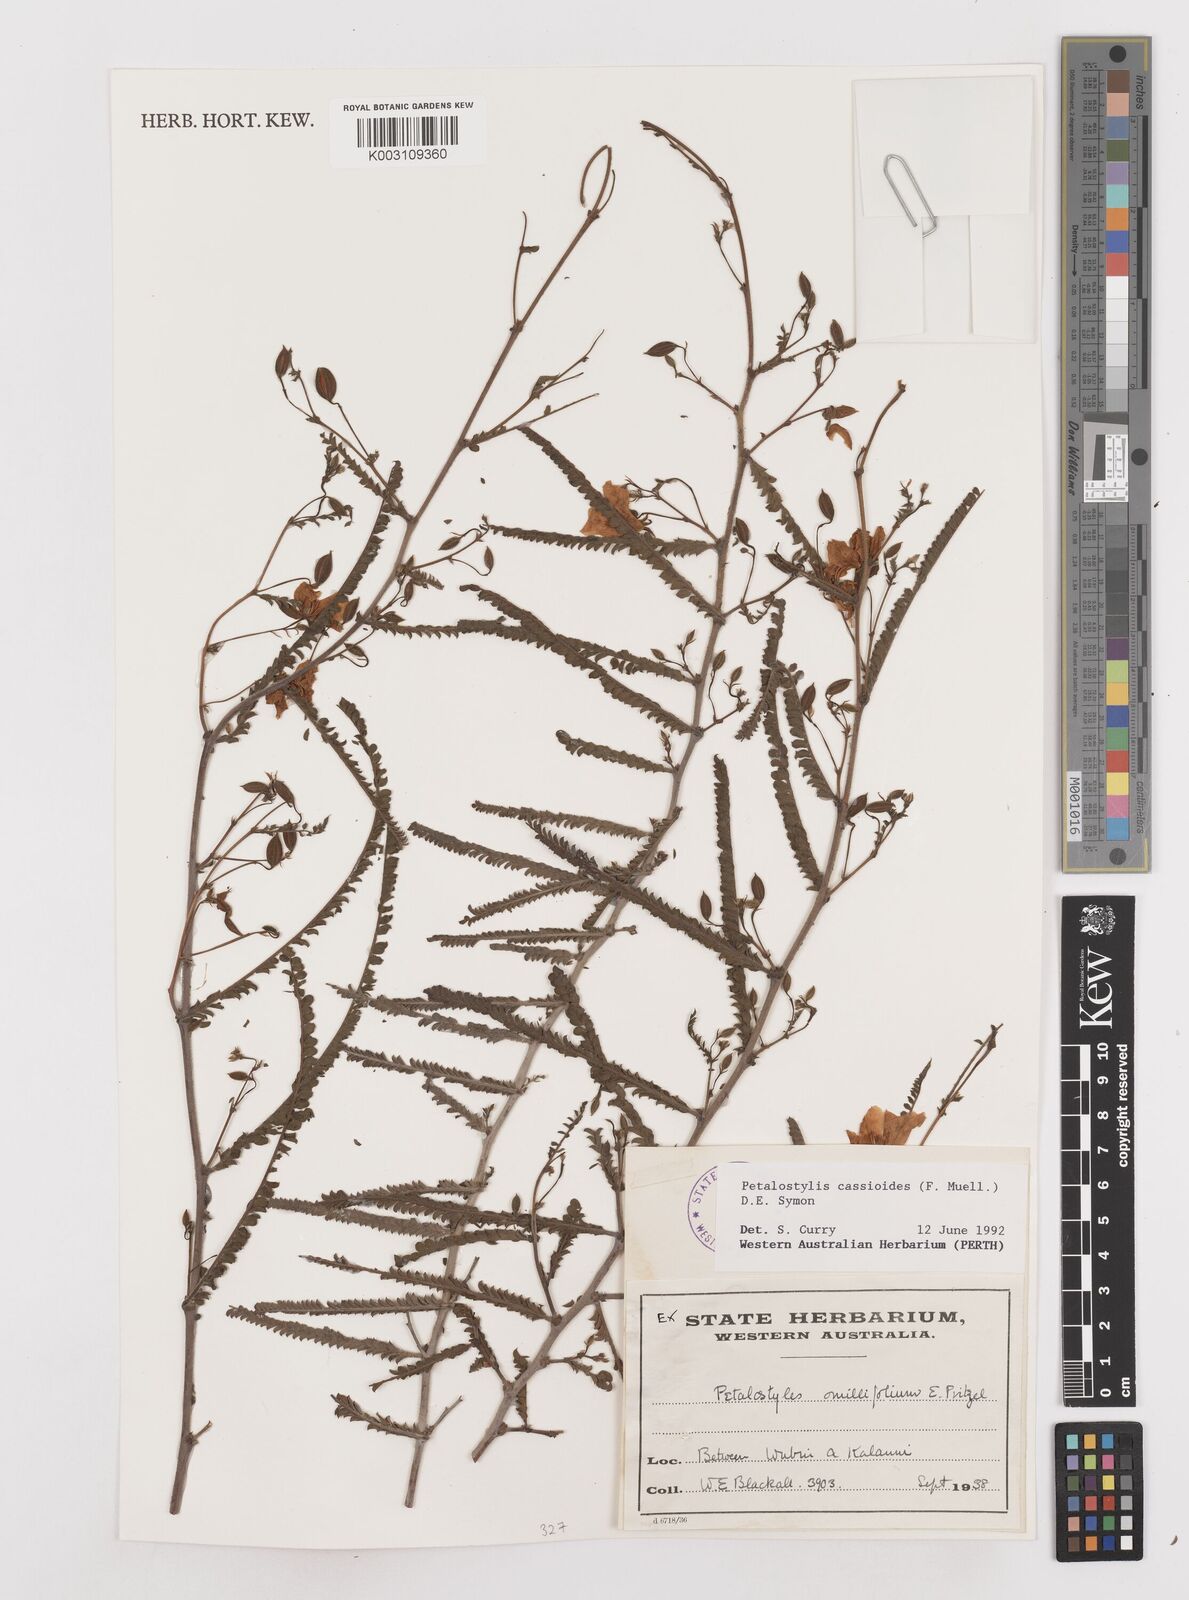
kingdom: Plantae
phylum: Tracheophyta
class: Magnoliopsida
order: Fabales
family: Fabaceae
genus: Petalostylis
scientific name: Petalostylis cassioides
